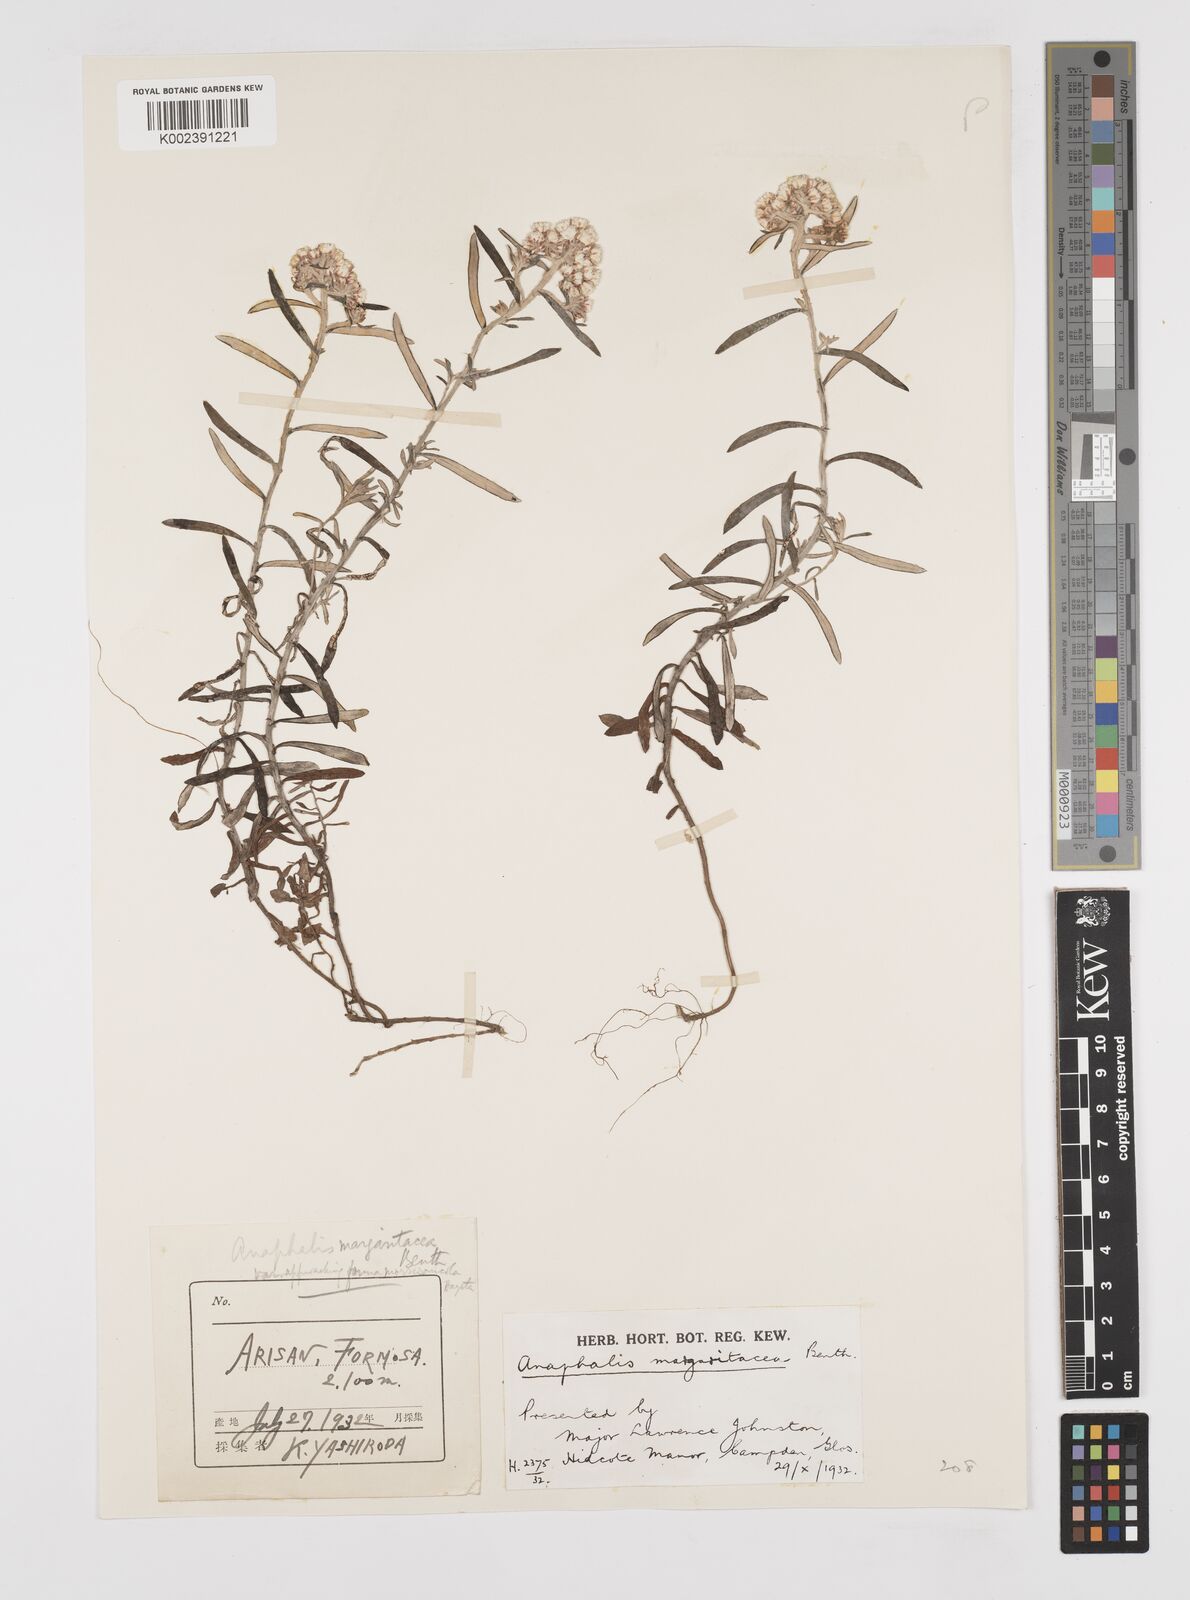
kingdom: Plantae
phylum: Tracheophyta
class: Magnoliopsida
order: Asterales
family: Asteraceae
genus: Anaphalis
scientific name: Anaphalis morrisonicola
